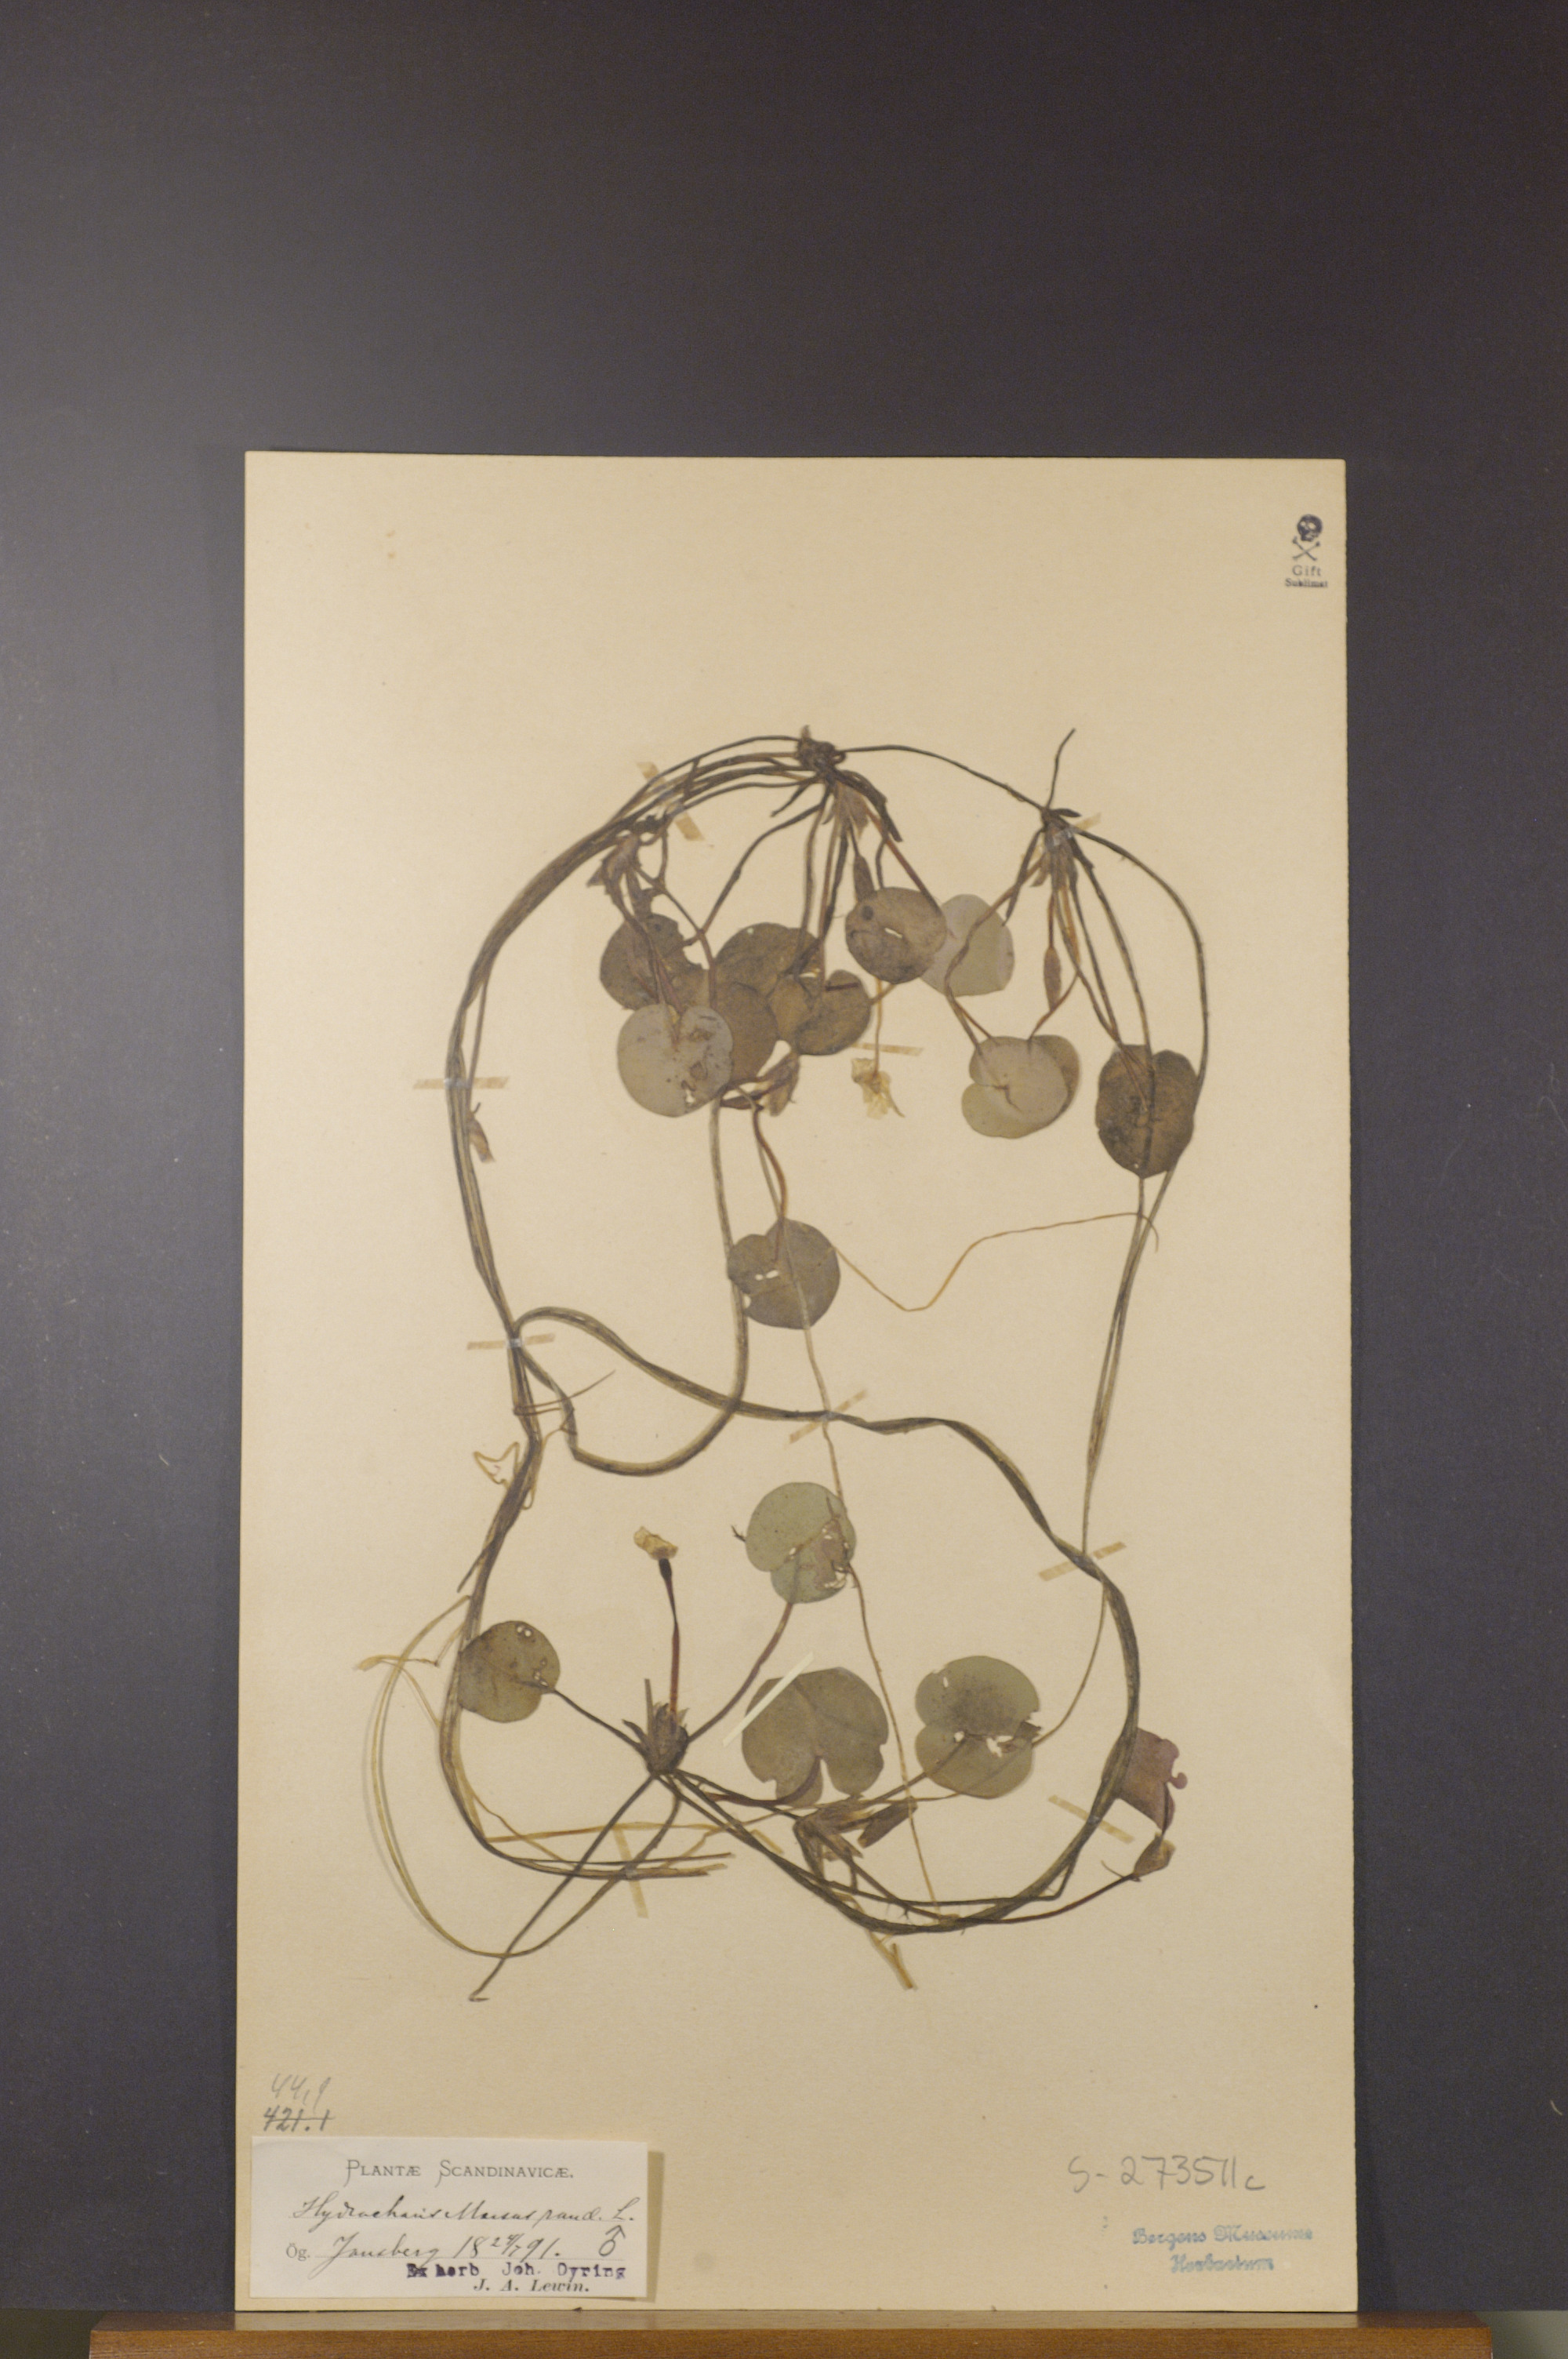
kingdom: Plantae
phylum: Tracheophyta
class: Liliopsida
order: Alismatales
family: Hydrocharitaceae
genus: Hydrocharis
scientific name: Hydrocharis morsus-ranae
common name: Frogbit
